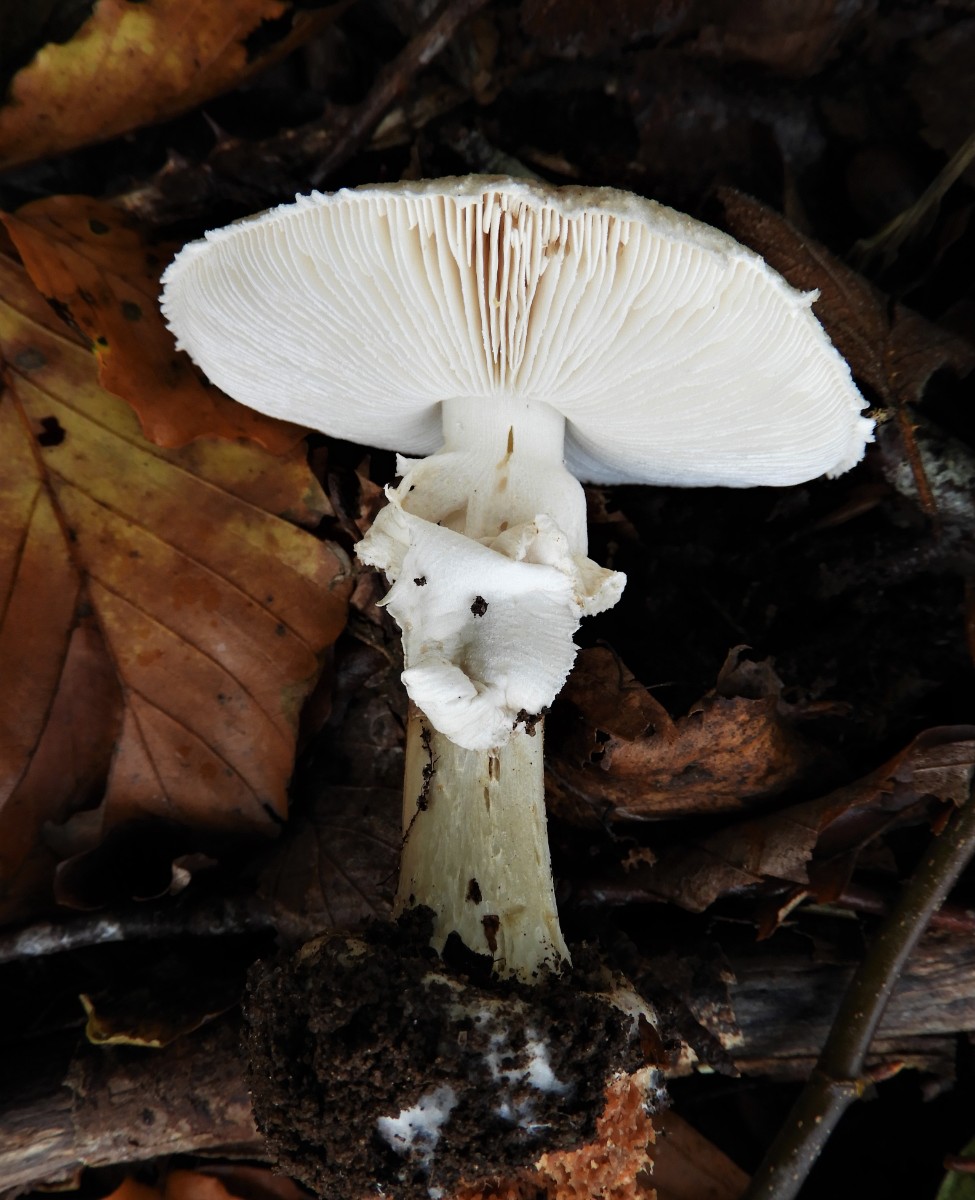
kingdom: Fungi
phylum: Basidiomycota
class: Agaricomycetes
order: Agaricales
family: Amanitaceae
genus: Amanita
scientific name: Amanita citrina
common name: kugleknoldet fluesvamp
